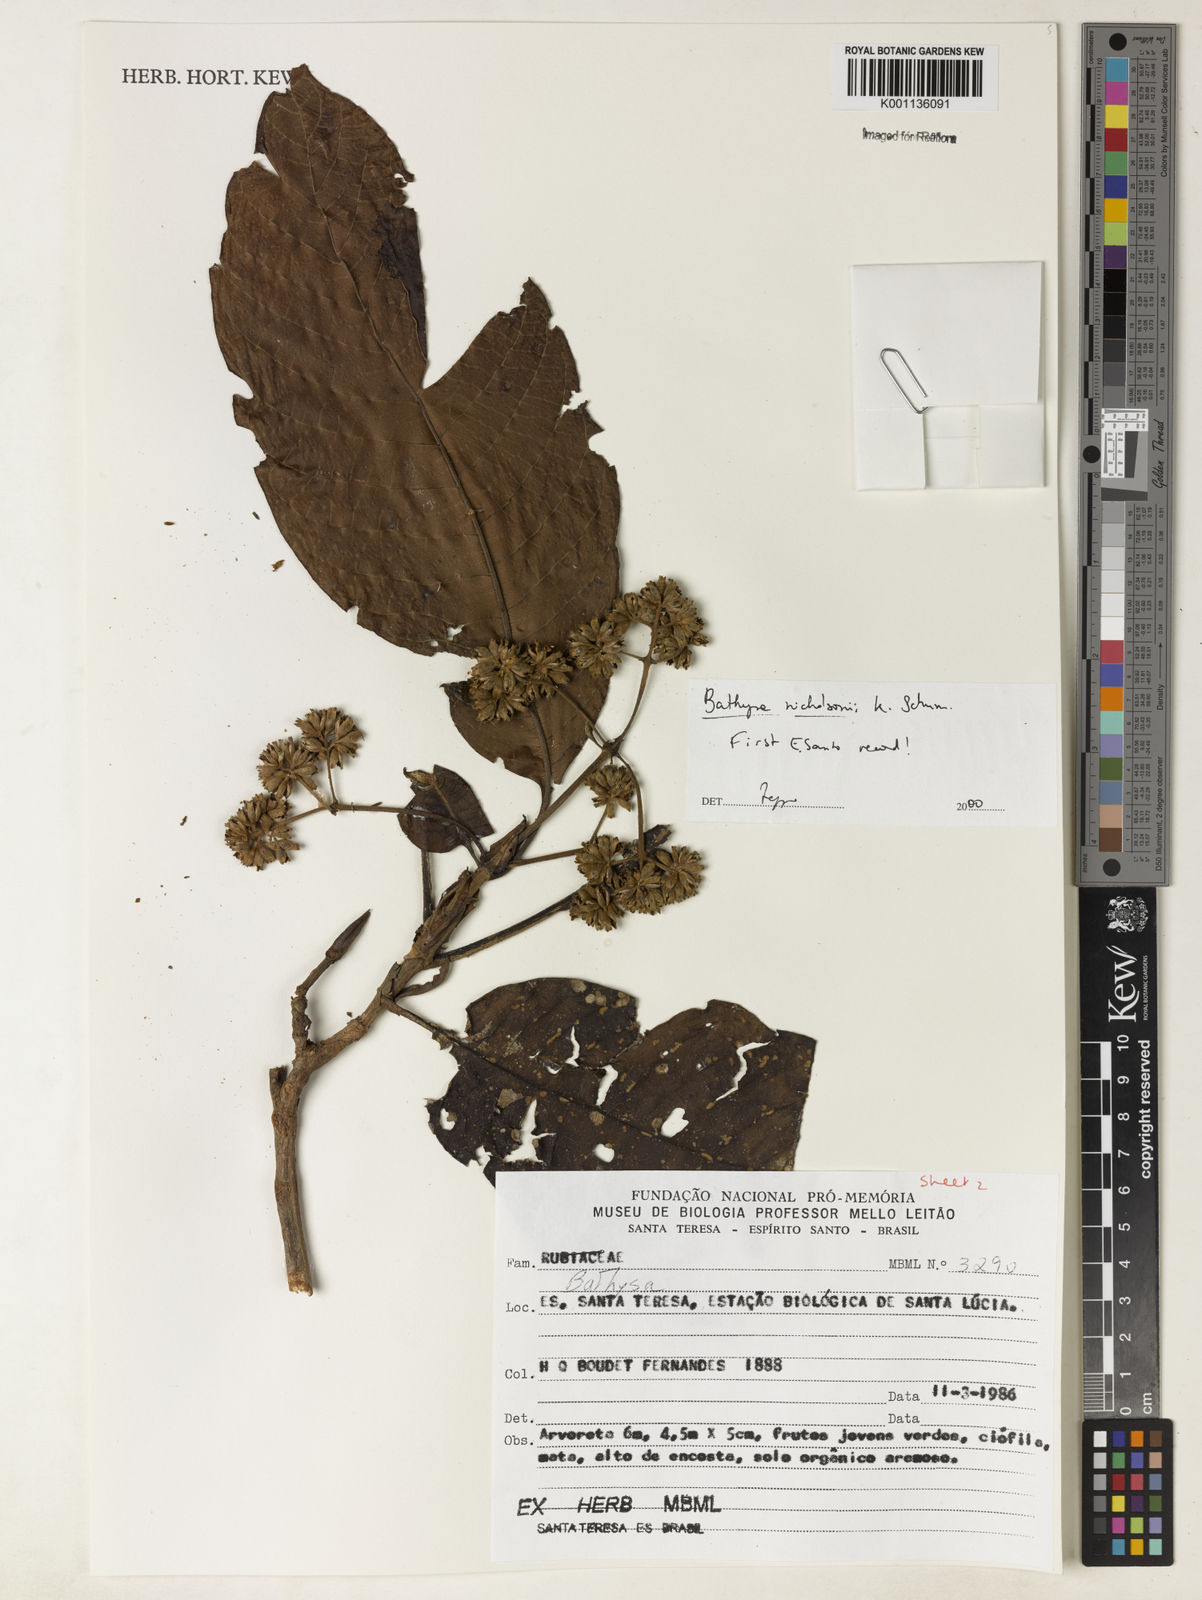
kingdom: Plantae
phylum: Tracheophyta
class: Magnoliopsida
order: Gentianales
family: Rubiaceae
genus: Bathysa
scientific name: Bathysa nicholsonii
